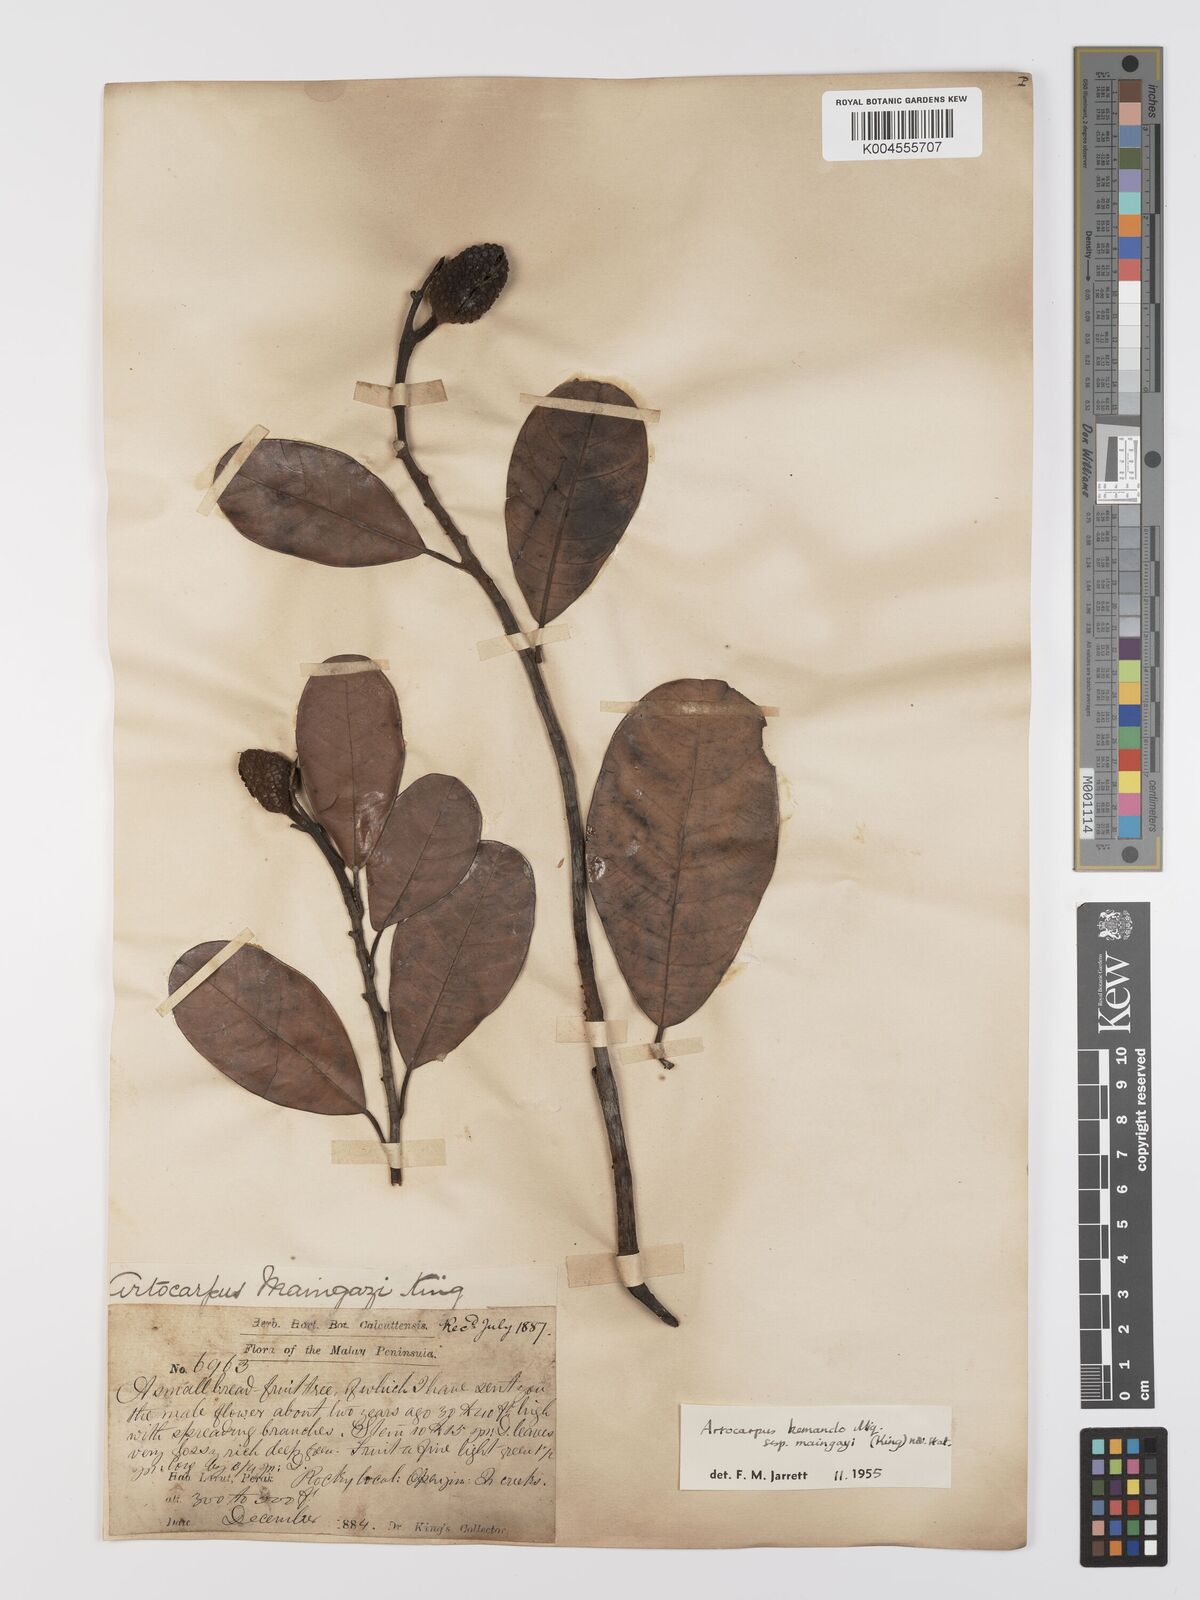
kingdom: Plantae
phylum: Tracheophyta
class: Magnoliopsida
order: Rosales
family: Moraceae
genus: Artocarpus
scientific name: Artocarpus kemando
